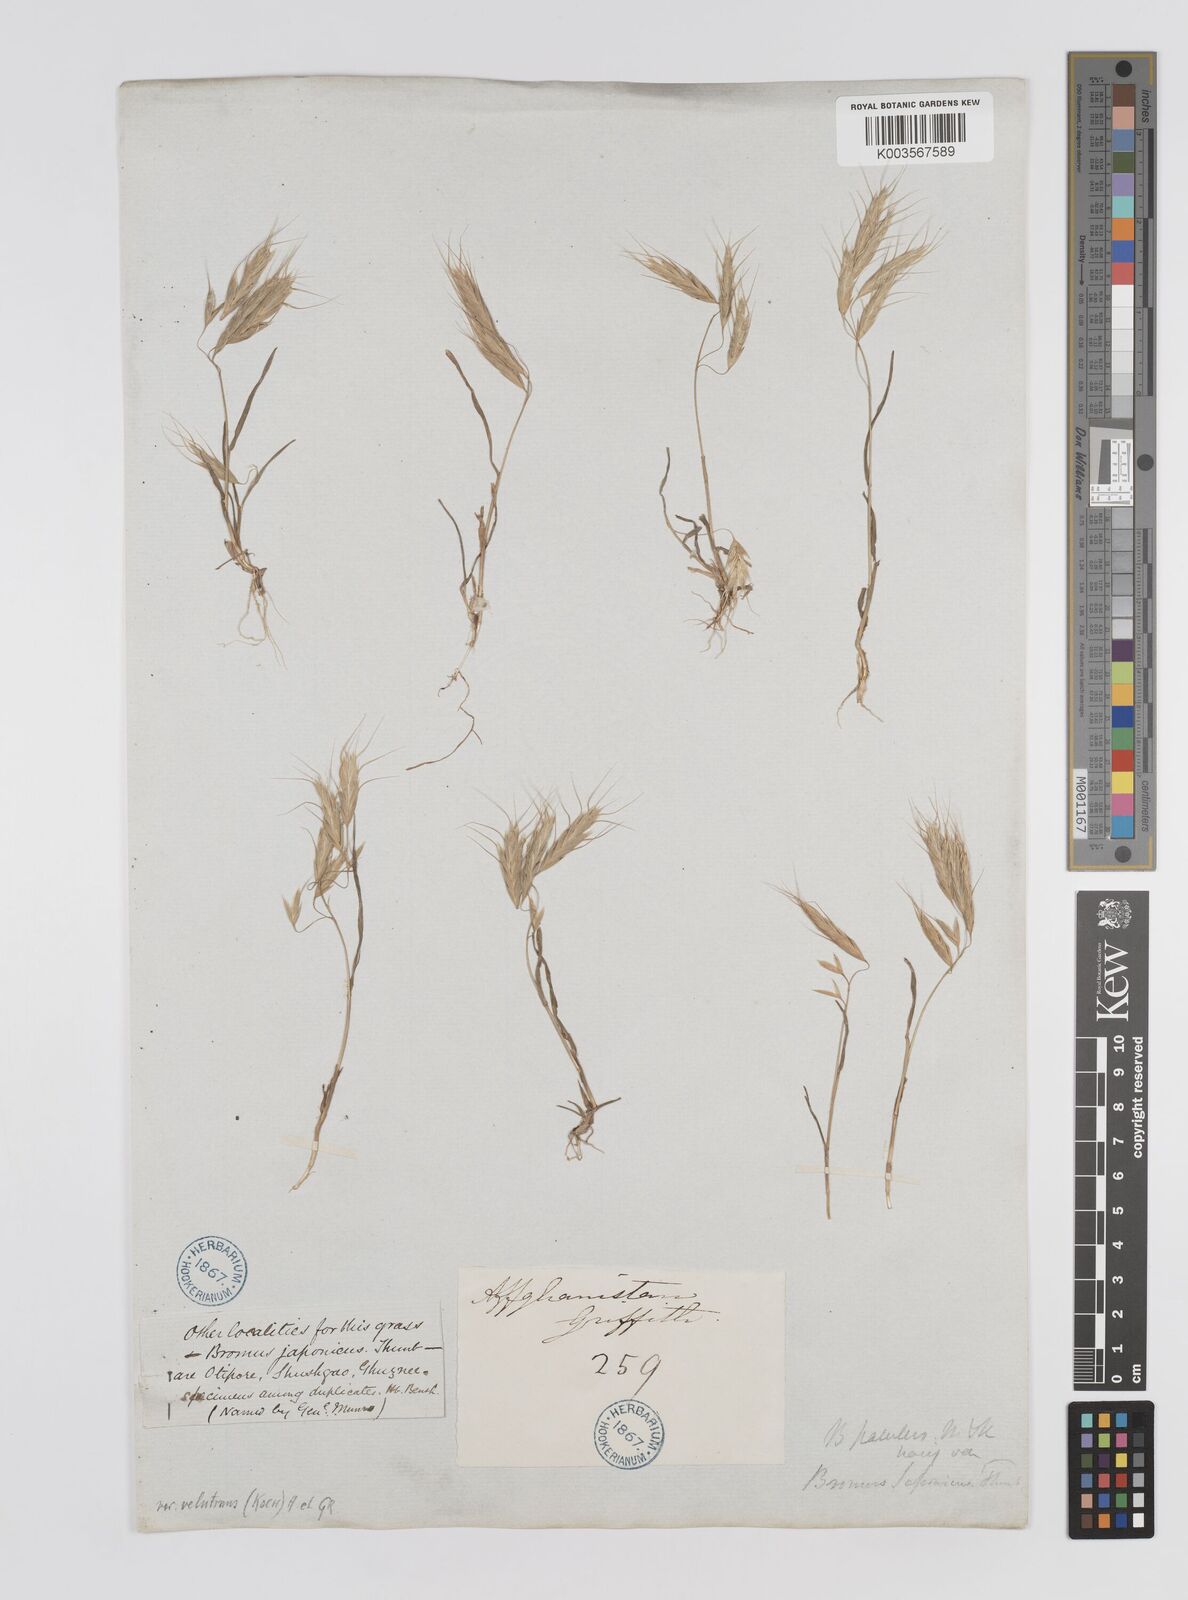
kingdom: Plantae
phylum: Tracheophyta
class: Liliopsida
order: Poales
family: Poaceae
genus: Bromus
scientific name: Bromus pectinatus
